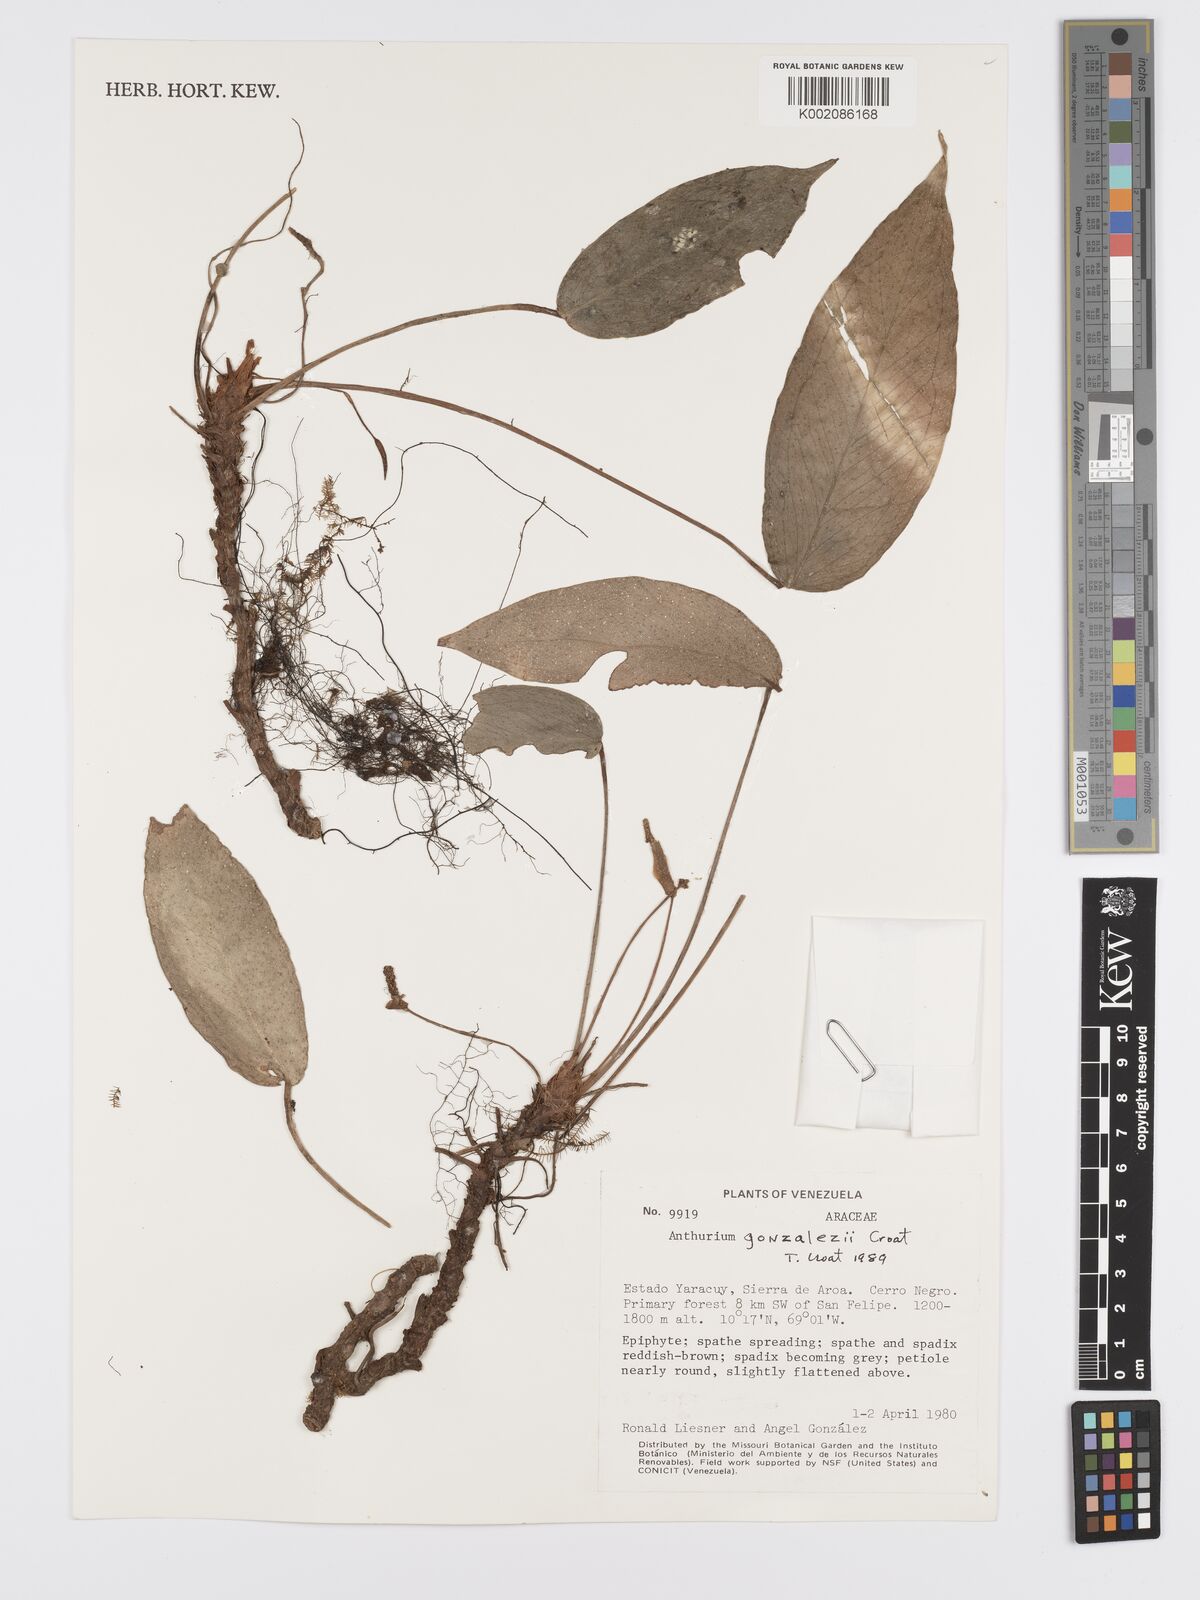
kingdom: Plantae
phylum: Tracheophyta
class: Liliopsida
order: Alismatales
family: Araceae
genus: Anthurium
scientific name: Anthurium gonzalezii
